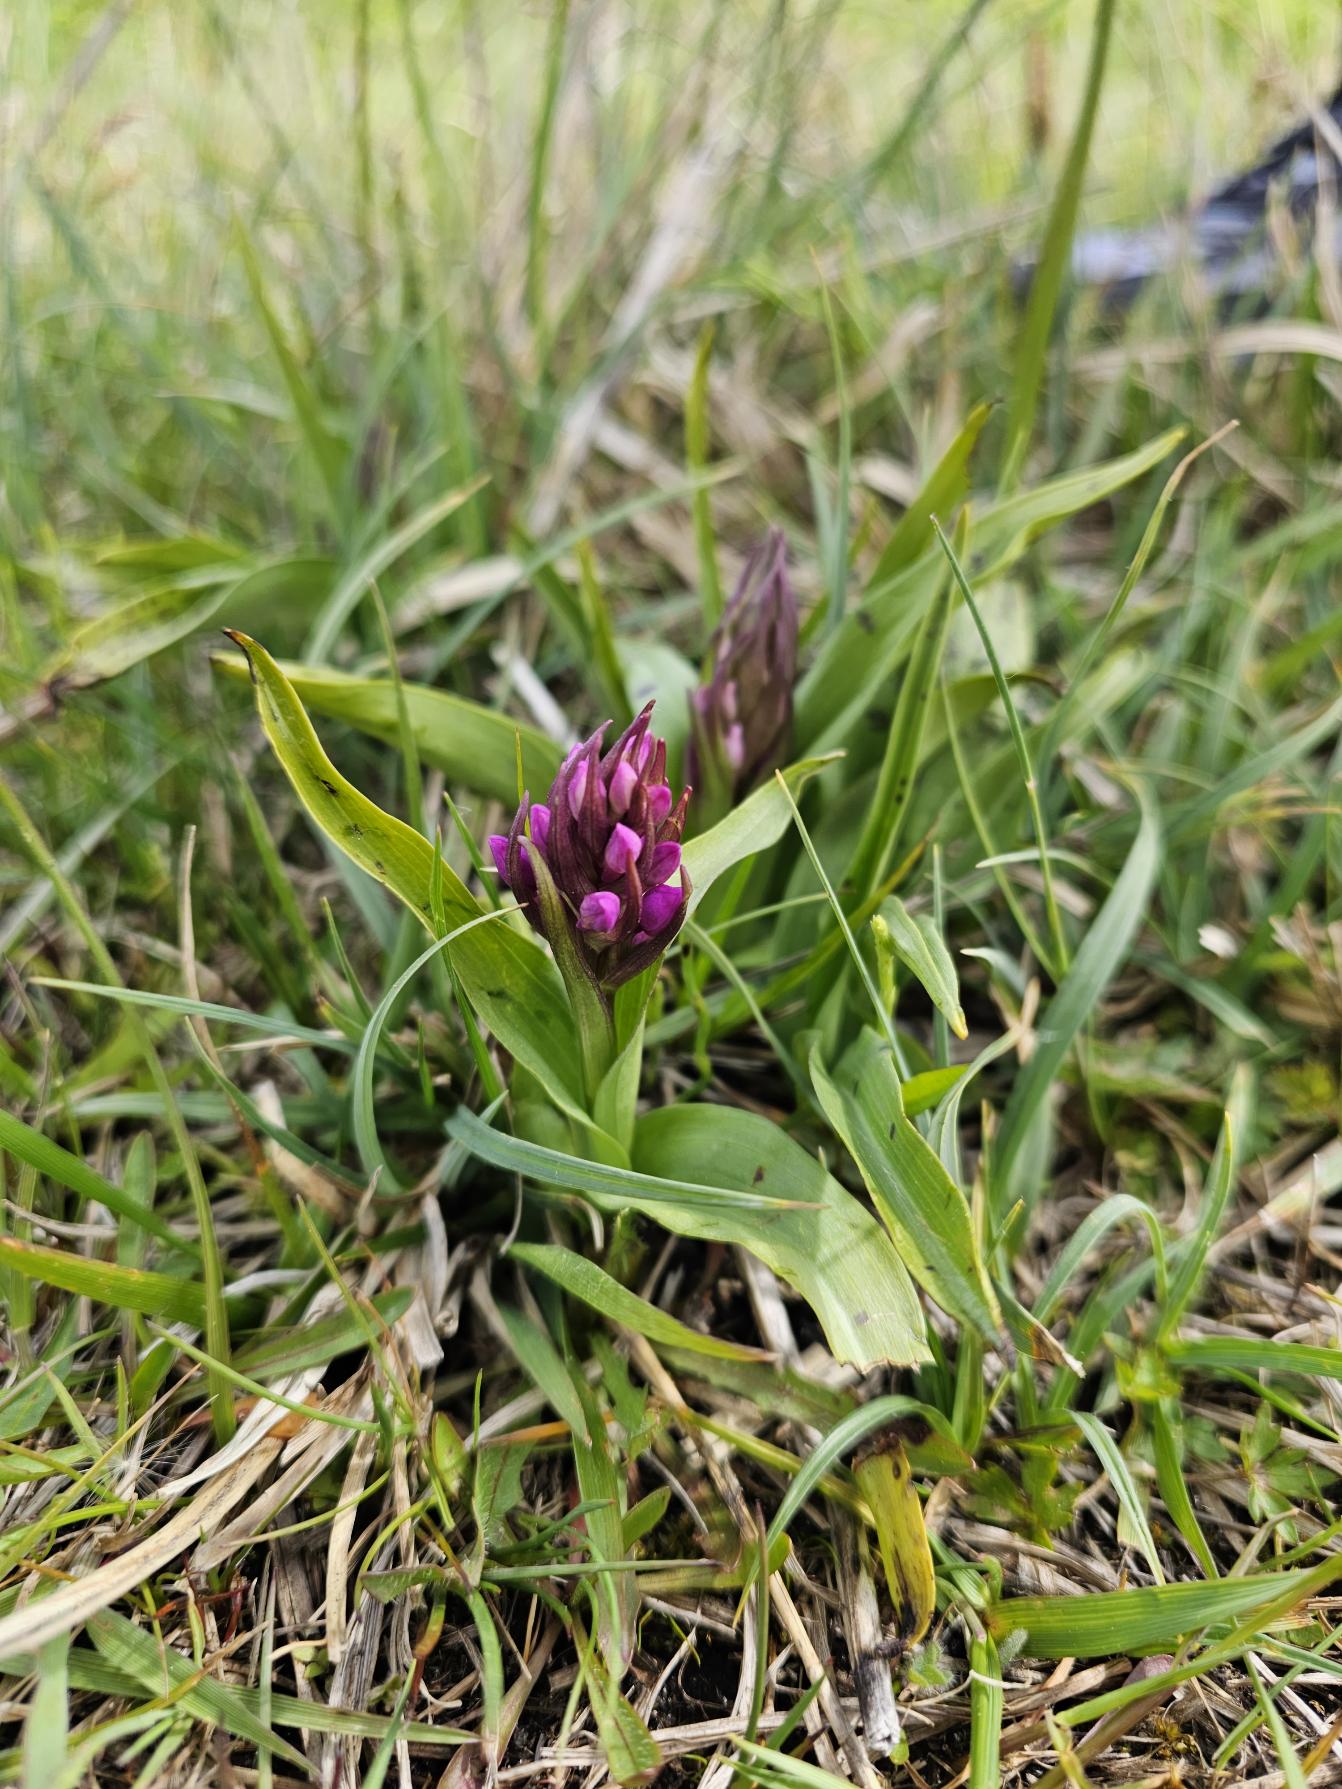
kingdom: Plantae
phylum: Tracheophyta
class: Liliopsida
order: Asparagales
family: Orchidaceae
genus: Dactylorhiza
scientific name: Dactylorhiza majalis
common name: Maj-gøgeurt
